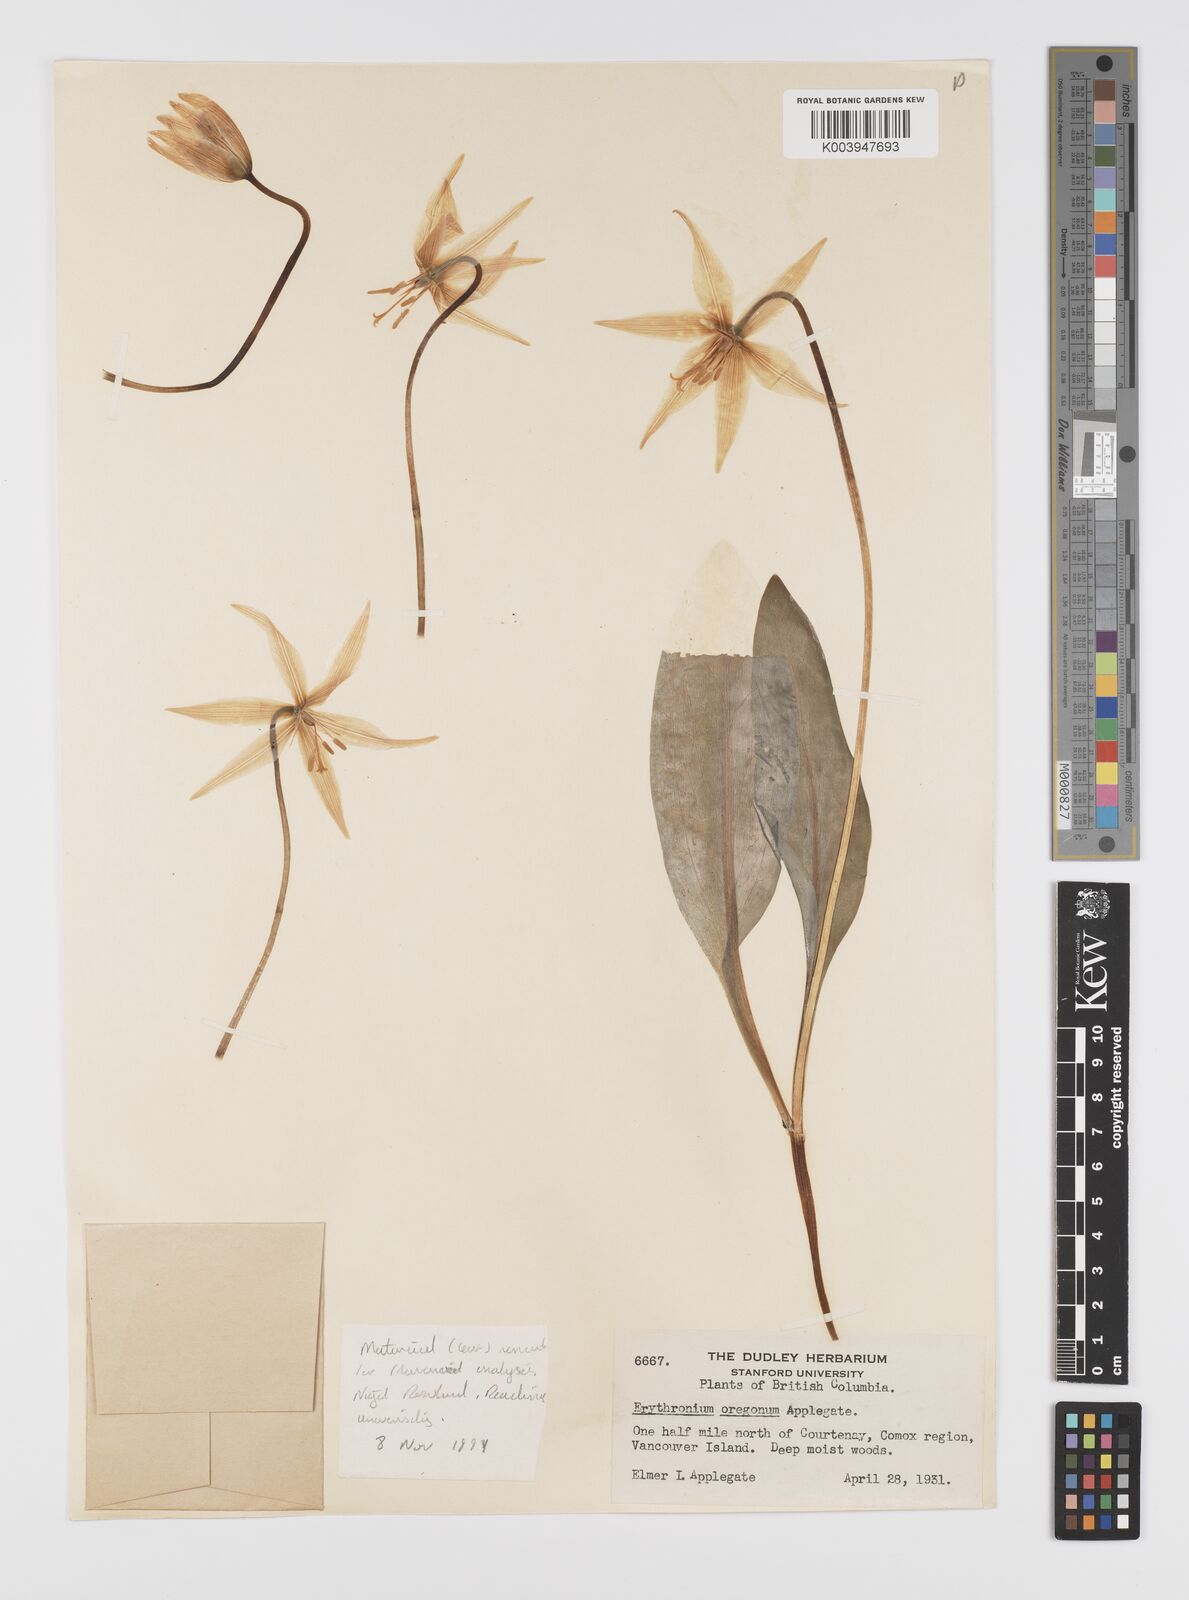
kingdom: Plantae
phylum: Tracheophyta
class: Liliopsida
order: Liliales
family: Liliaceae
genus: Erythronium
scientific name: Erythronium oregonum
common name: Giant adder's-tongue
